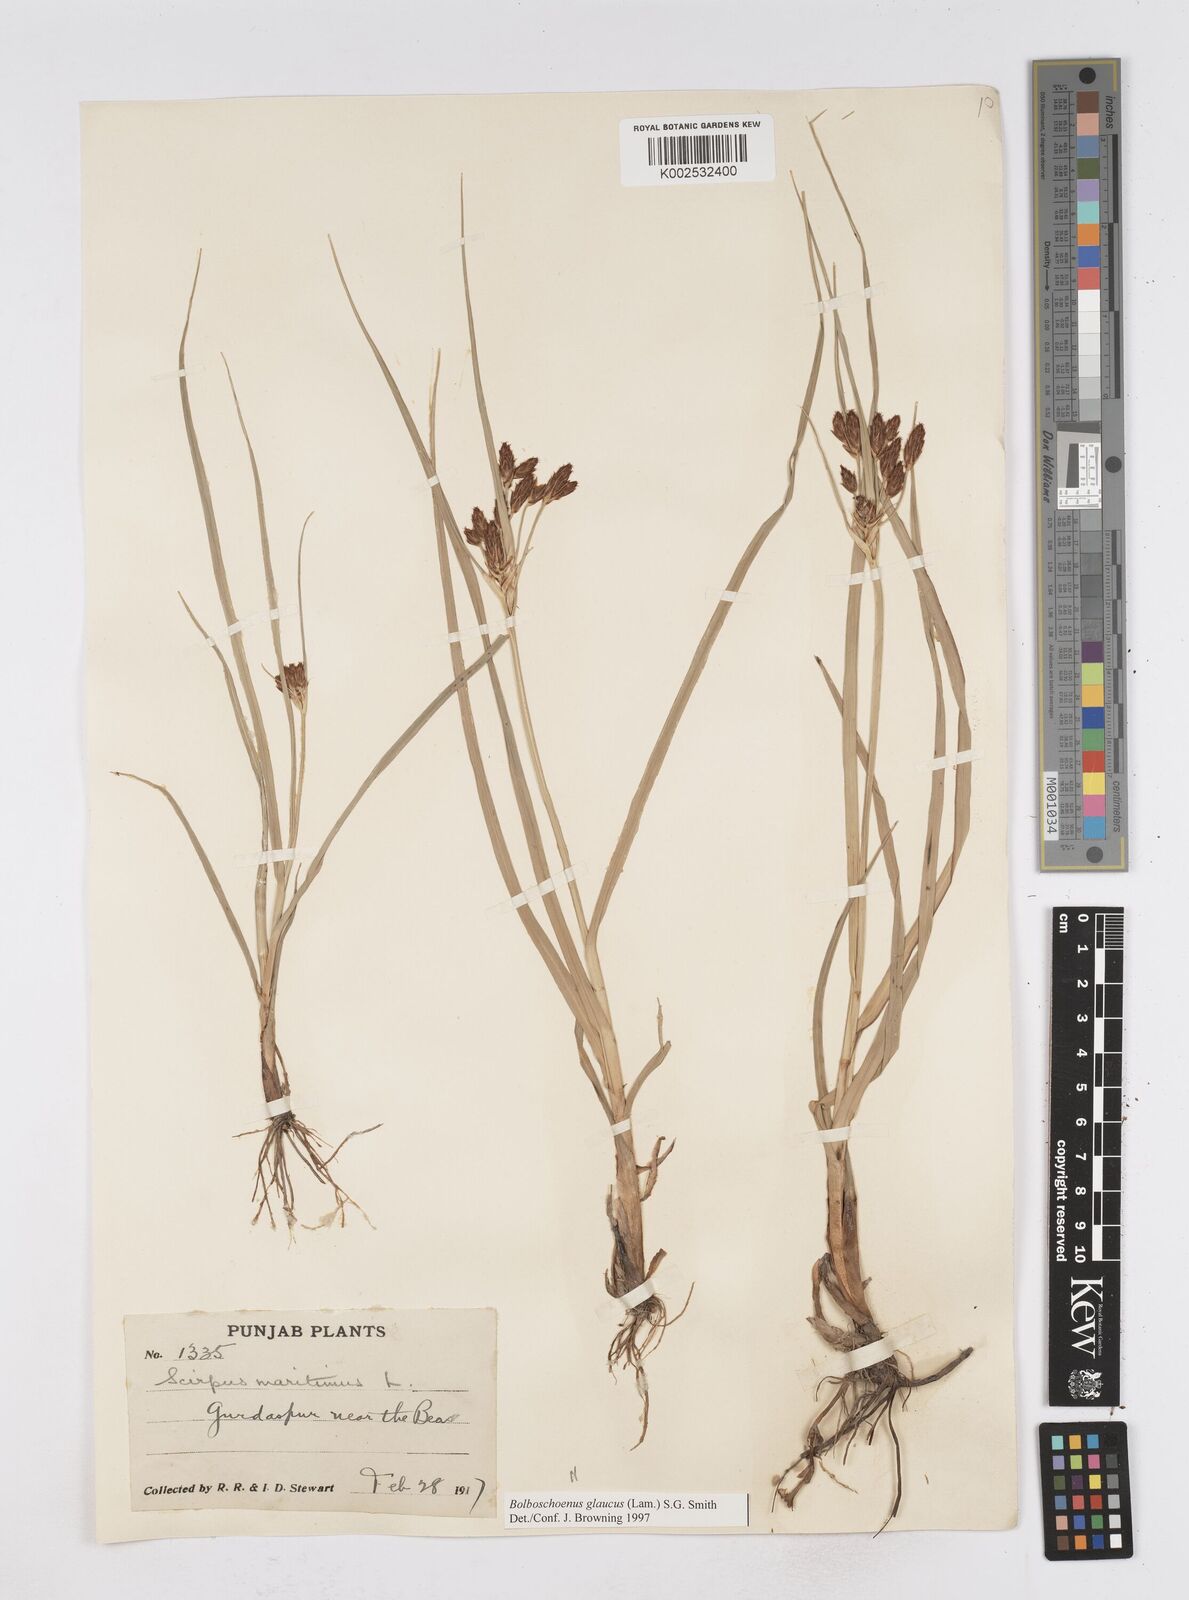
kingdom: Plantae
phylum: Tracheophyta
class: Liliopsida
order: Poales
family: Cyperaceae
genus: Bolboschoenus
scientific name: Bolboschoenus maritimus
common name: Sea club-rush
